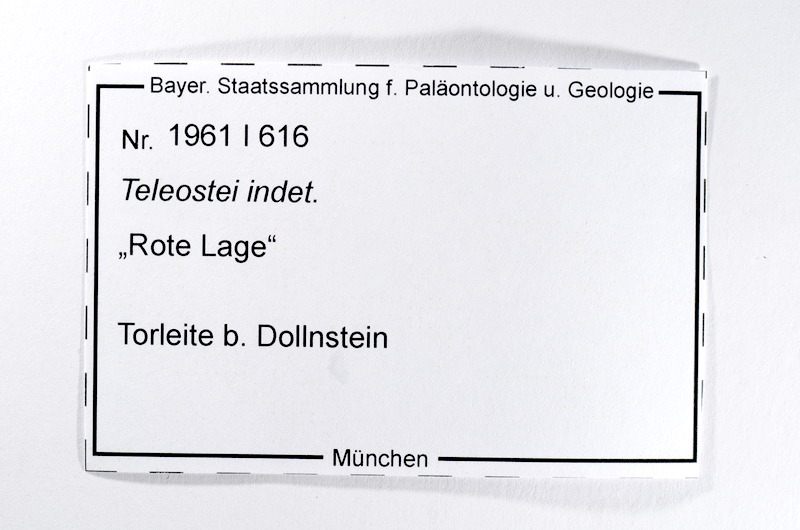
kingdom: Animalia
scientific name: Animalia
